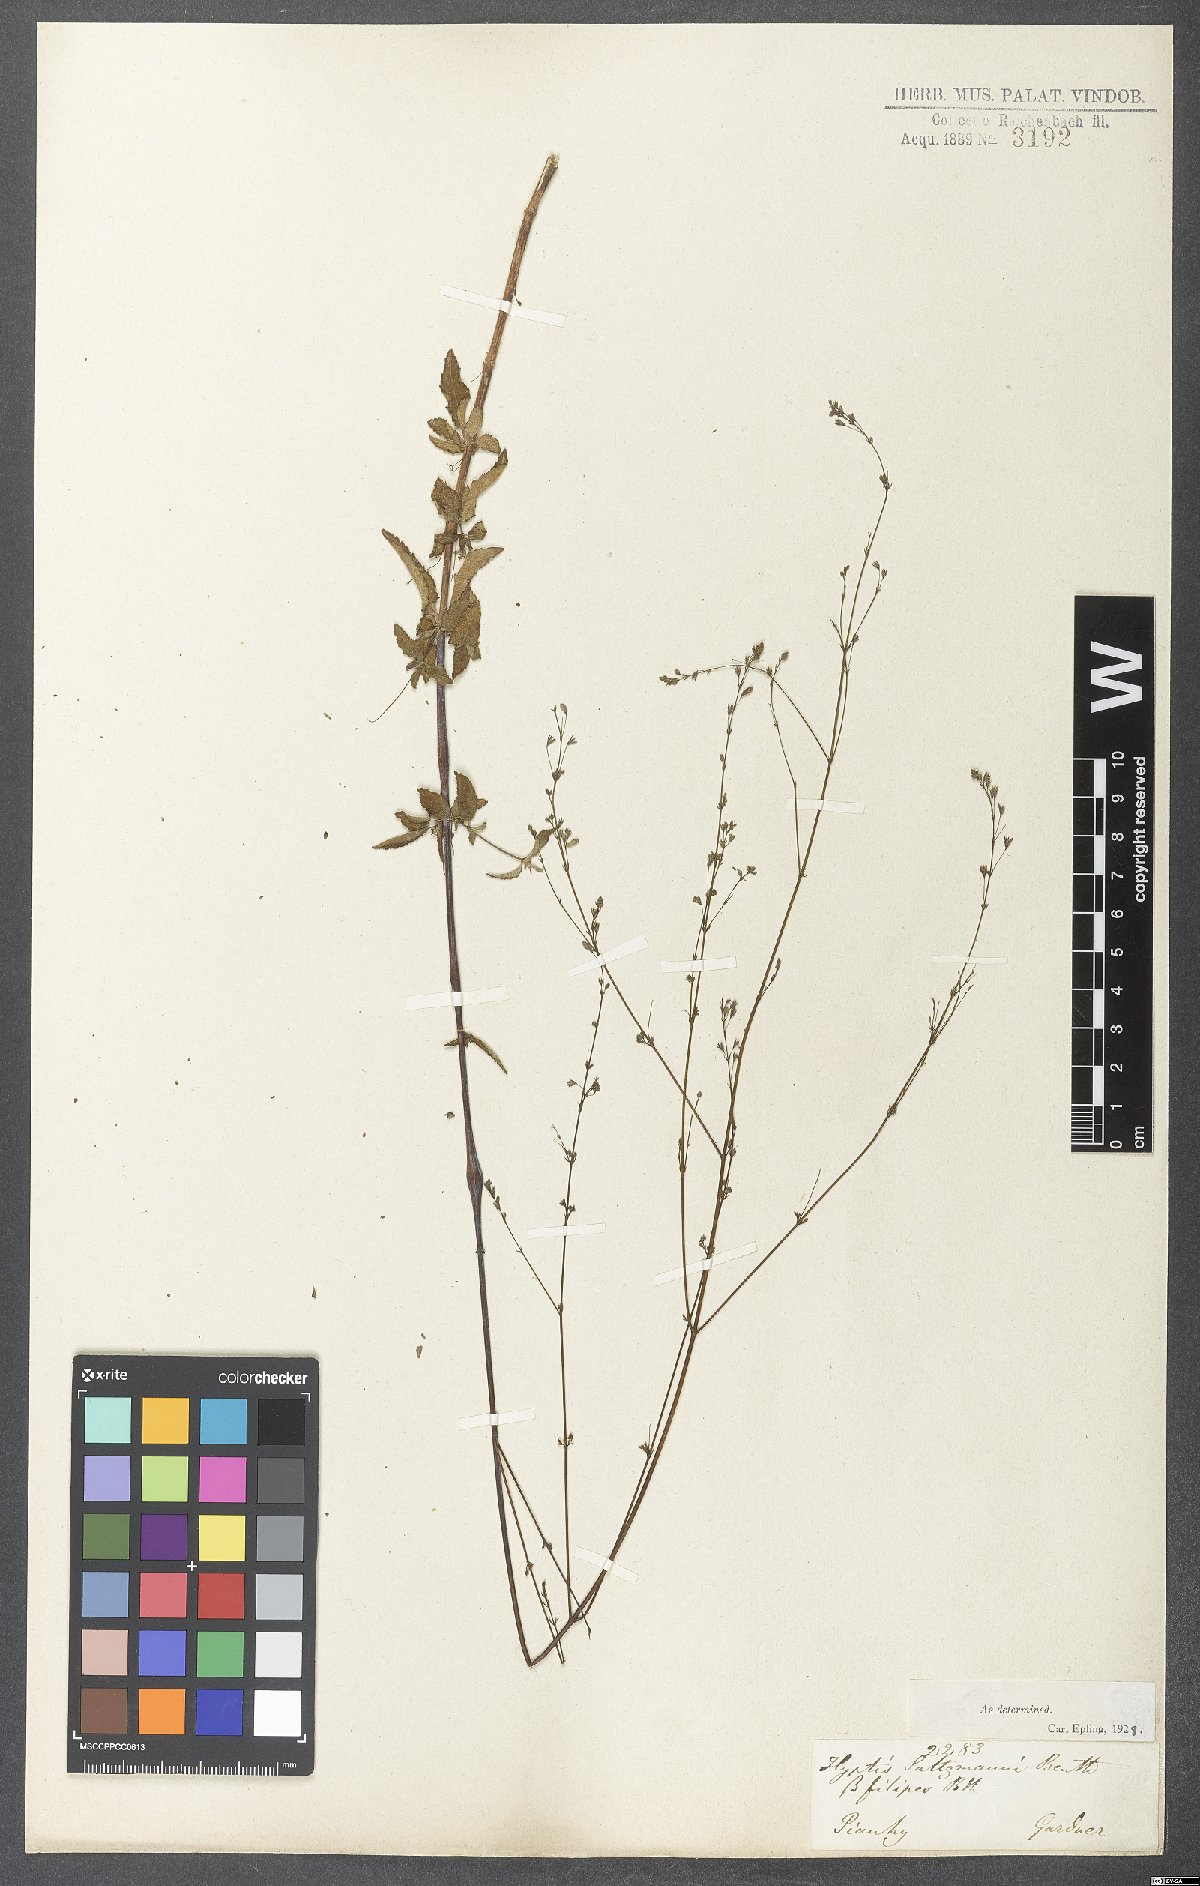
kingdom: Plantae
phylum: Tracheophyta
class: Magnoliopsida
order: Lamiales
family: Lamiaceae
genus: Hypenia
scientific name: Hypenia salzmannii
